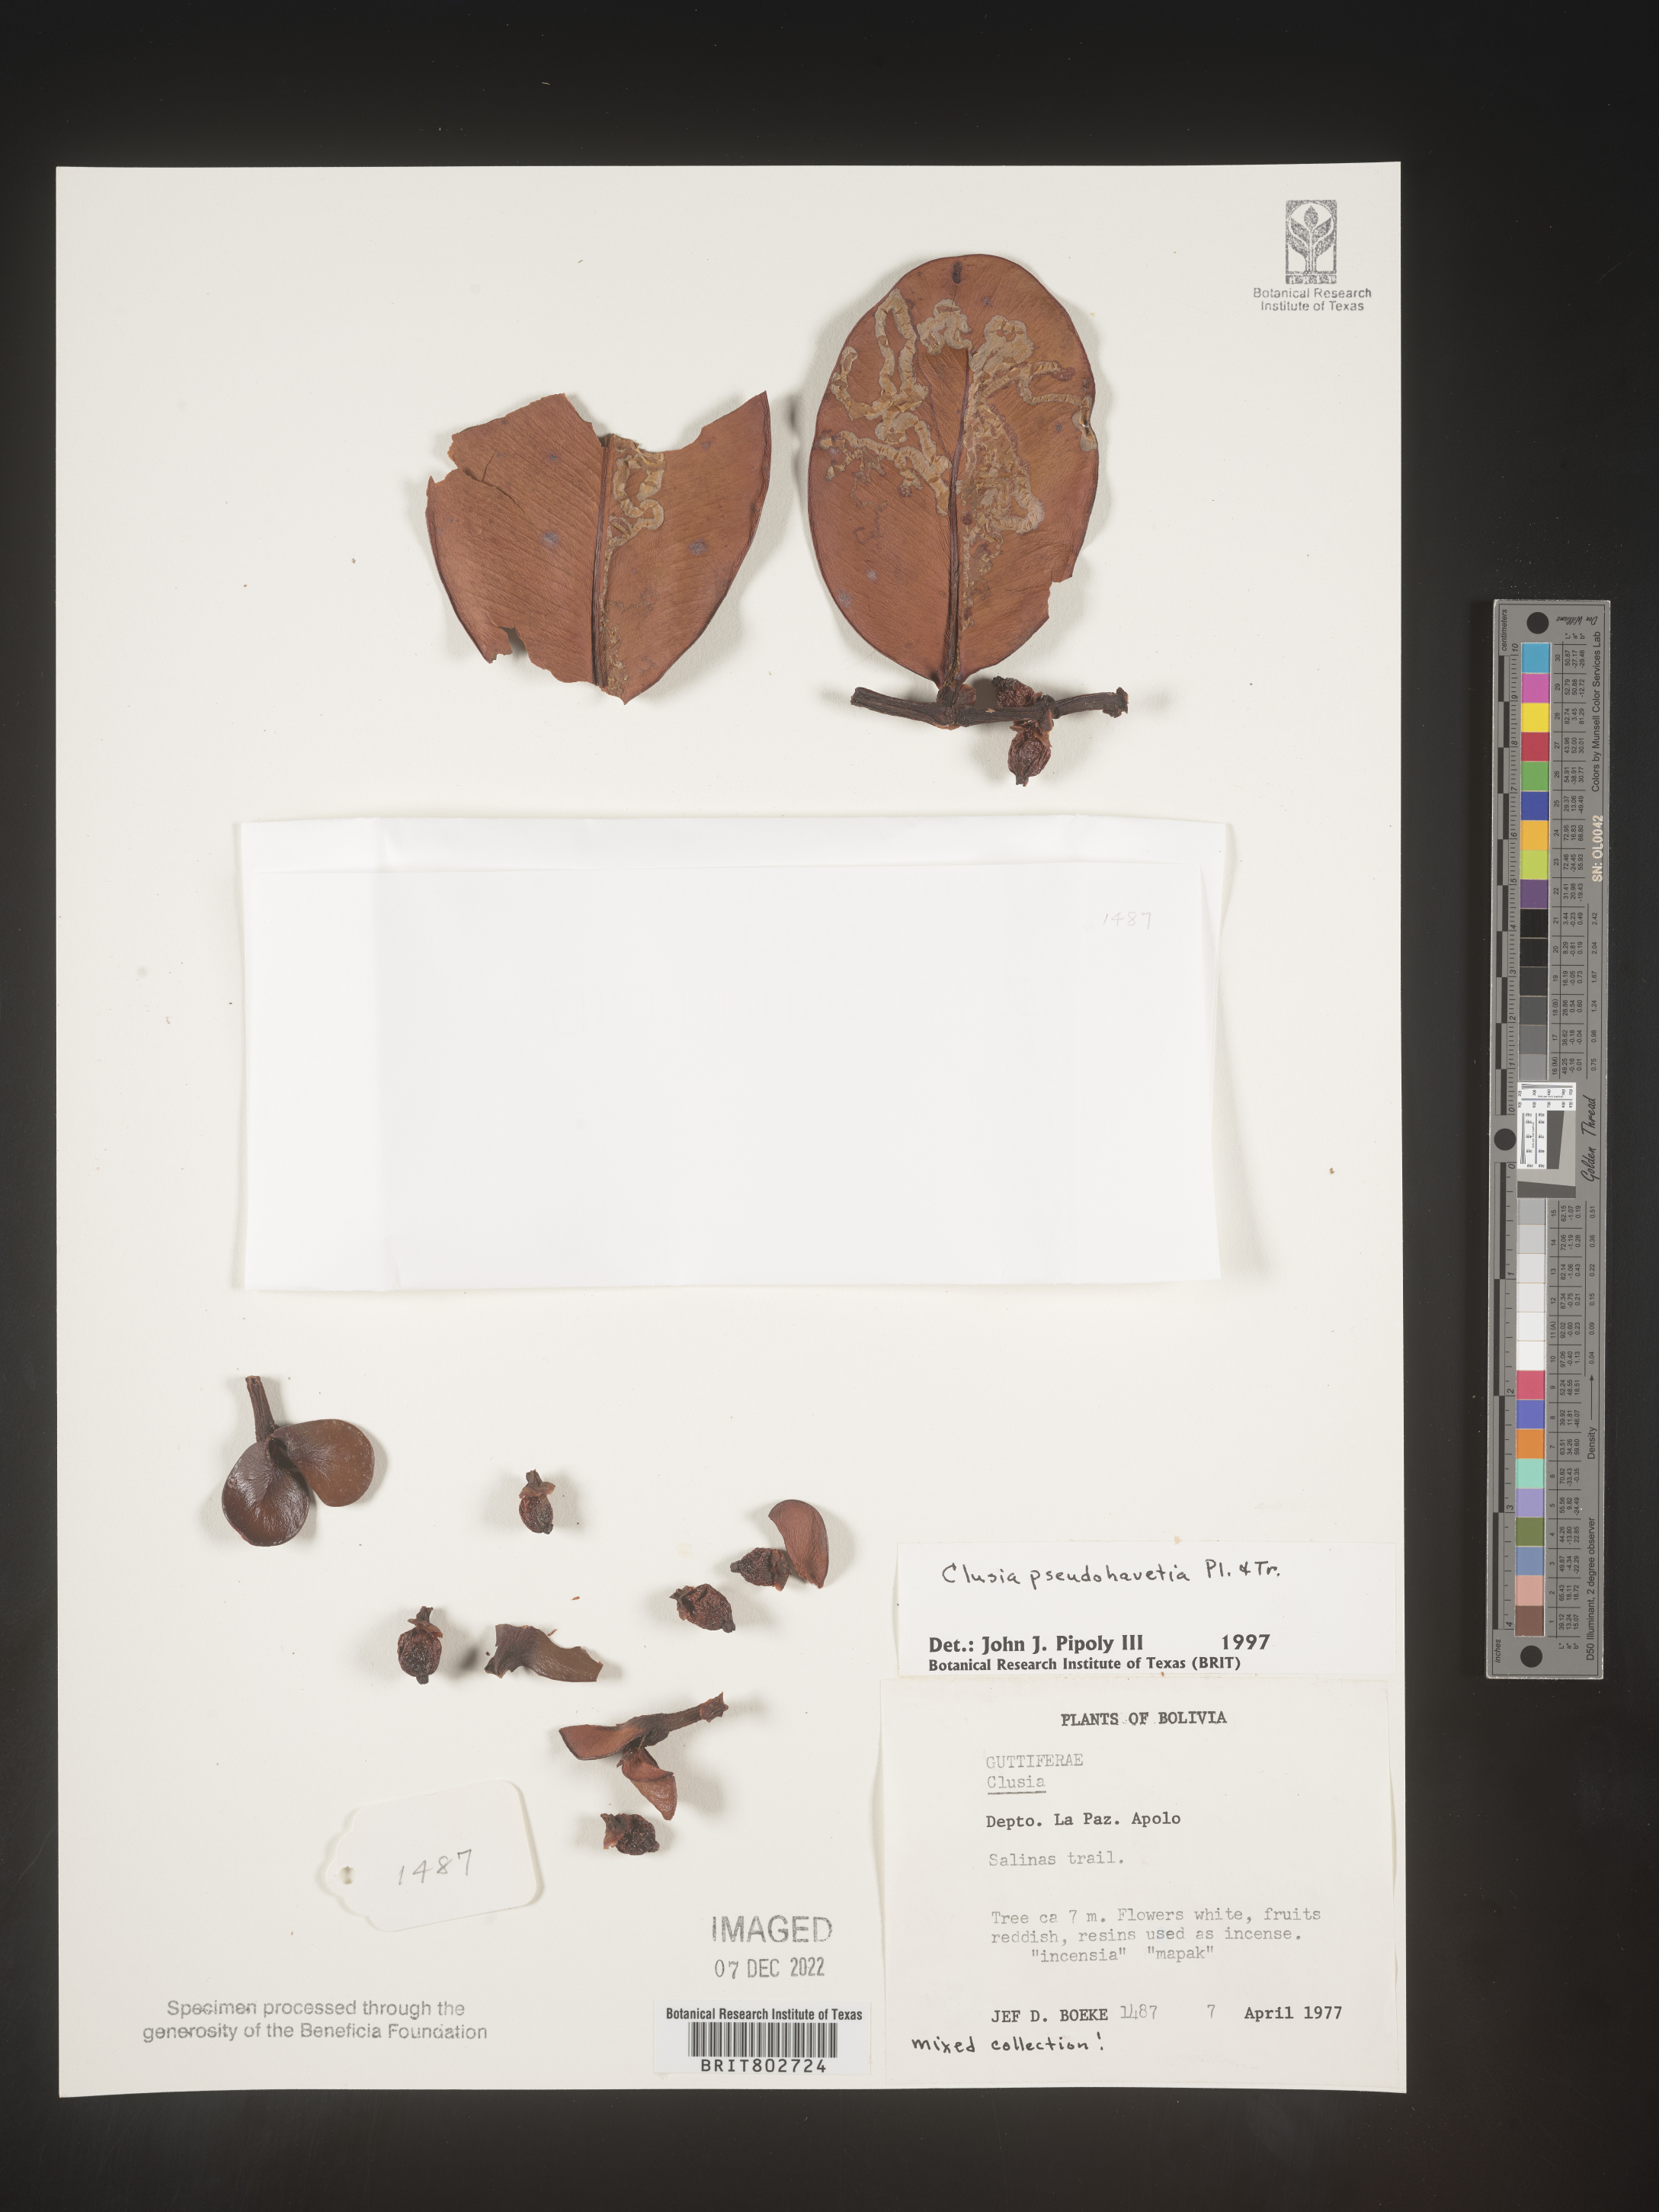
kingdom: Plantae
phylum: Tracheophyta
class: Magnoliopsida
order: Malpighiales
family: Clusiaceae
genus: Clusia
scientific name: Clusia
